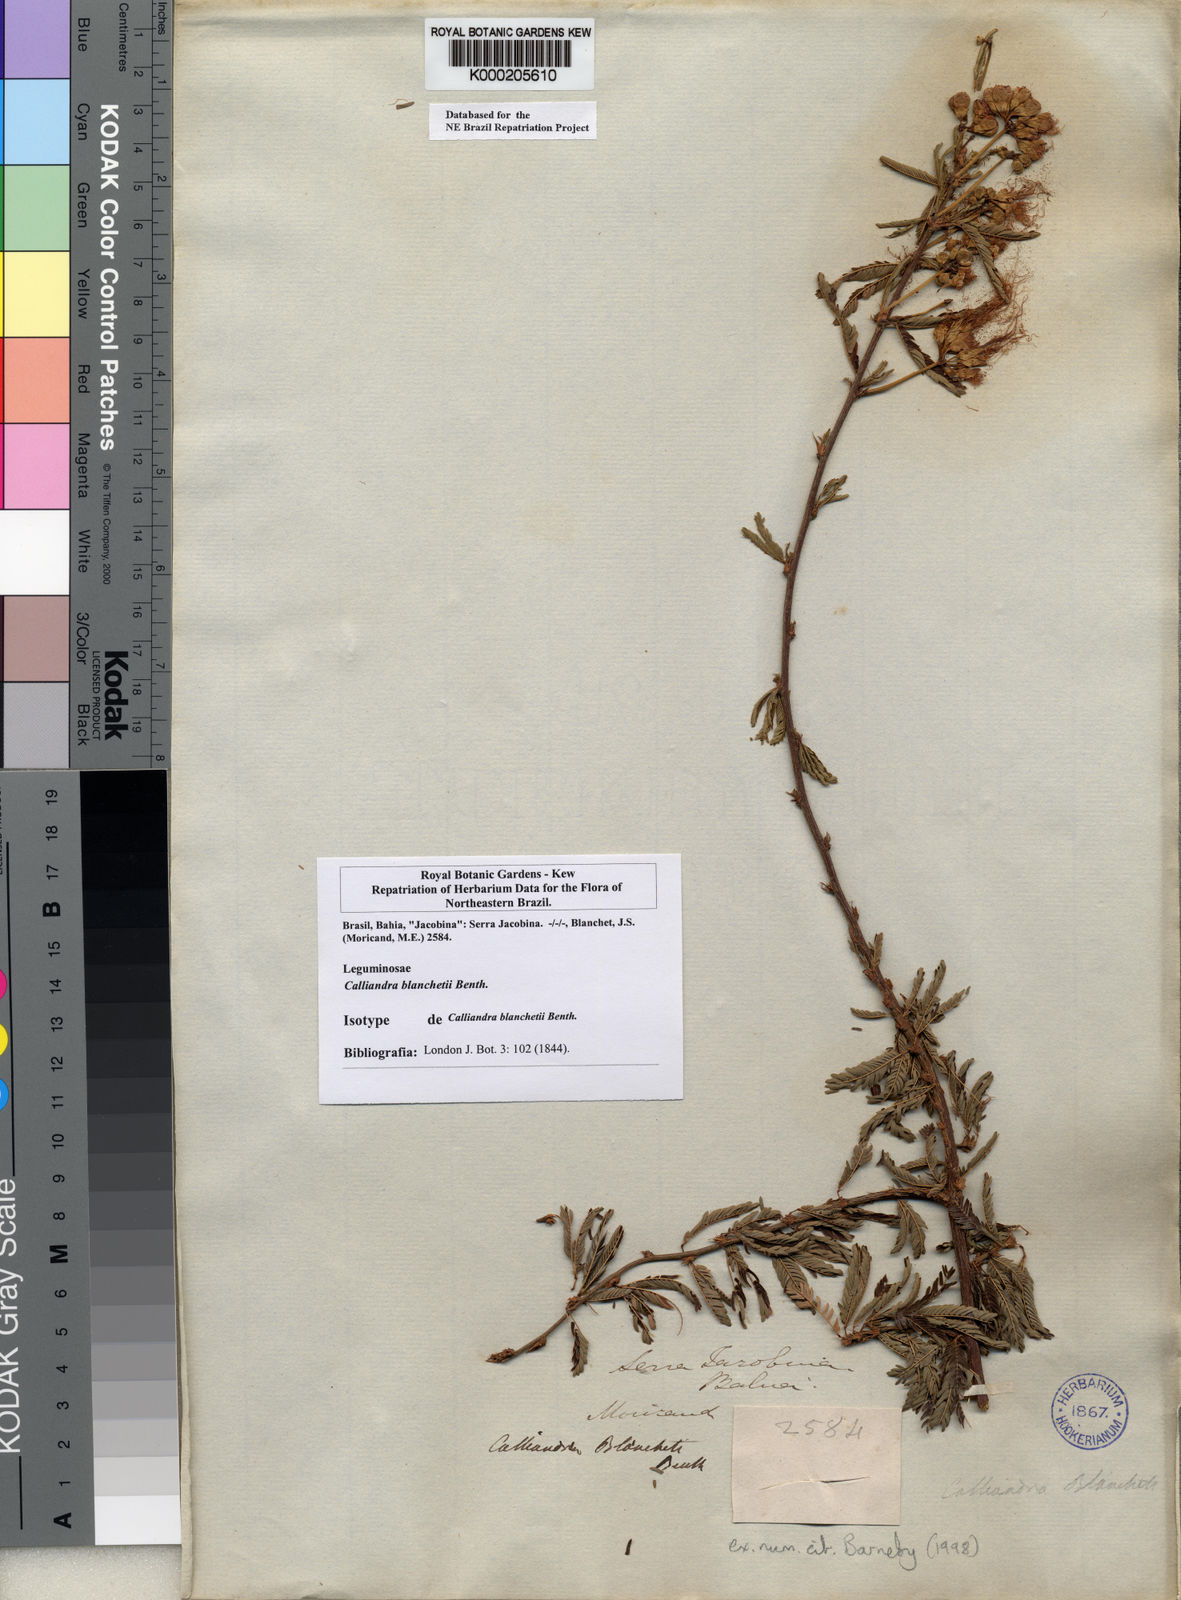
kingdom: Plantae
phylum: Tracheophyta
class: Magnoliopsida
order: Fabales
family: Fabaceae
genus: Calliandra
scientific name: Calliandra blanchetii
